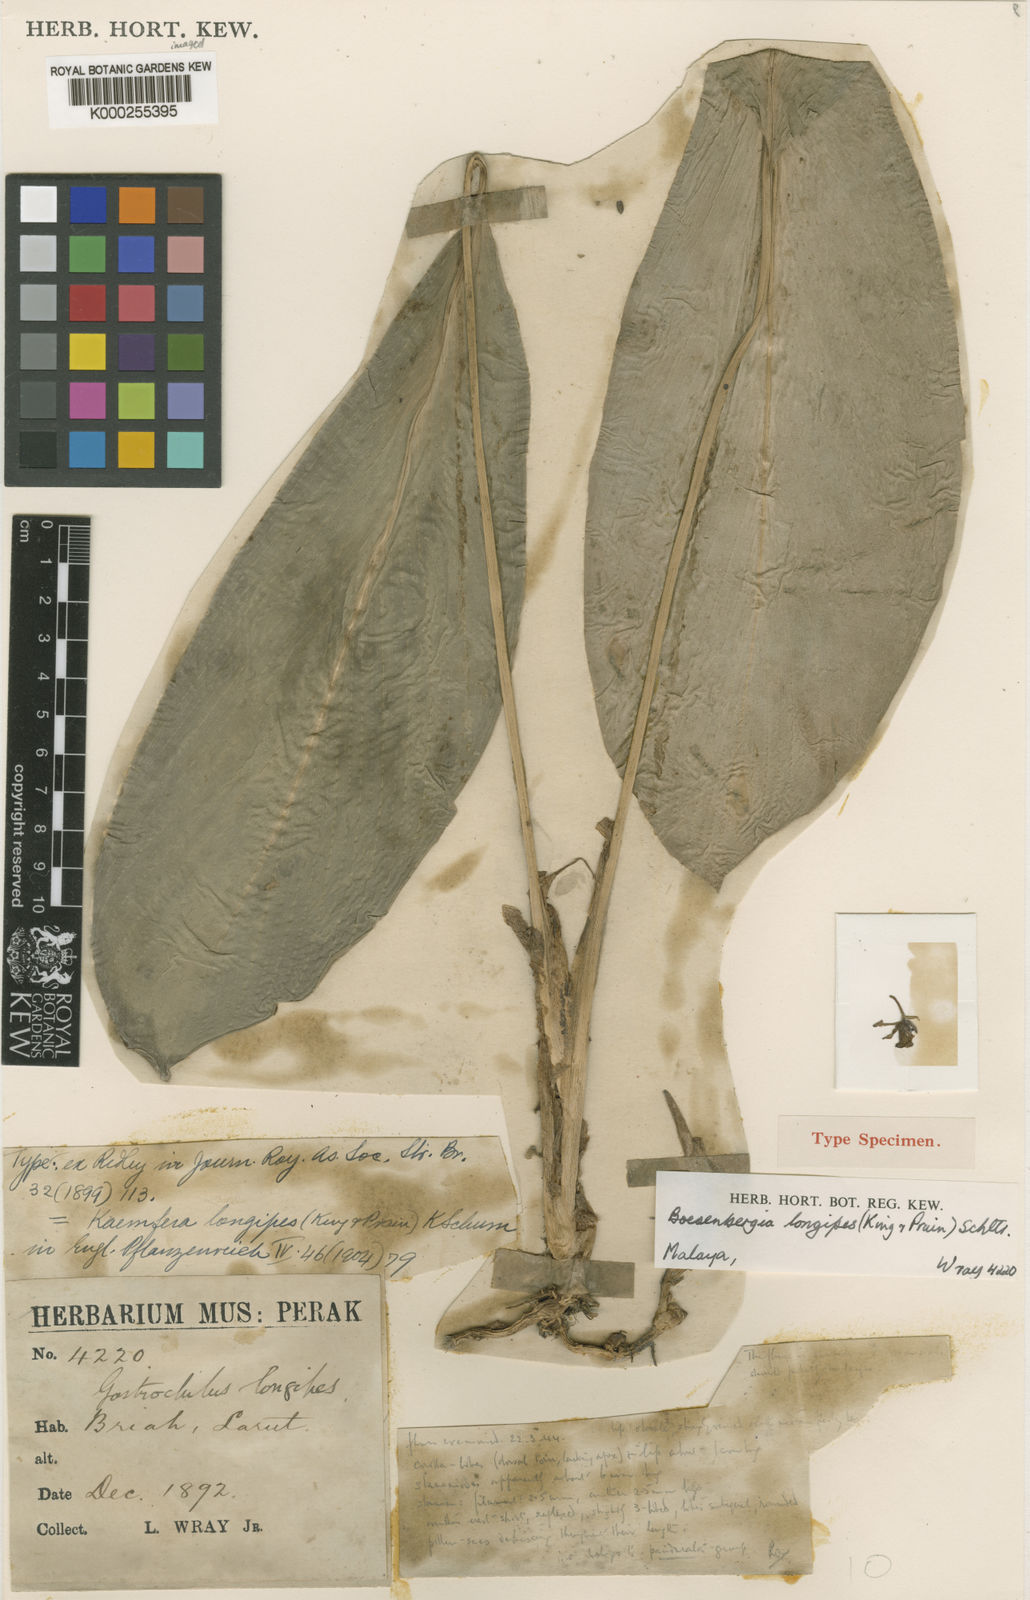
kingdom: Plantae
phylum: Tracheophyta
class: Liliopsida
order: Zingiberales
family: Zingiberaceae
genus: Boesenbergia
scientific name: Boesenbergia longipes
